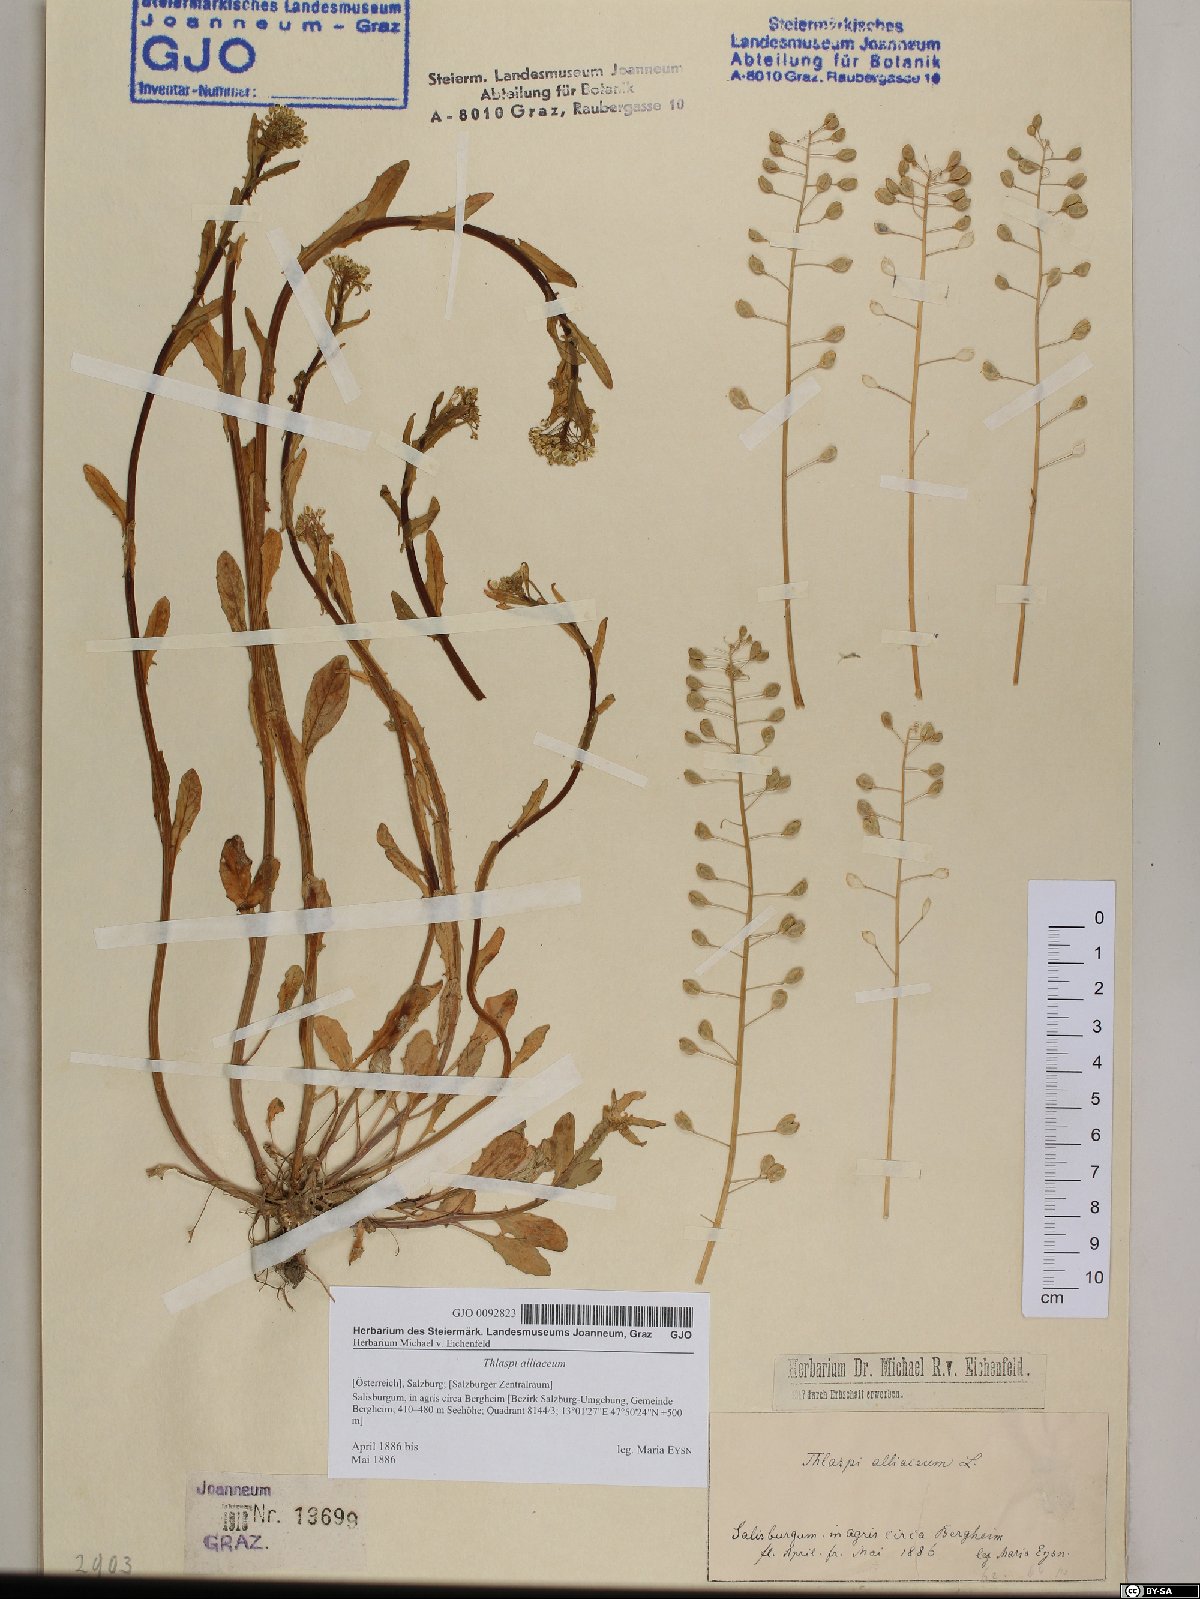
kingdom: Plantae
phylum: Tracheophyta
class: Magnoliopsida
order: Brassicales
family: Brassicaceae
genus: Mummenhoffia
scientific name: Mummenhoffia alliacea
